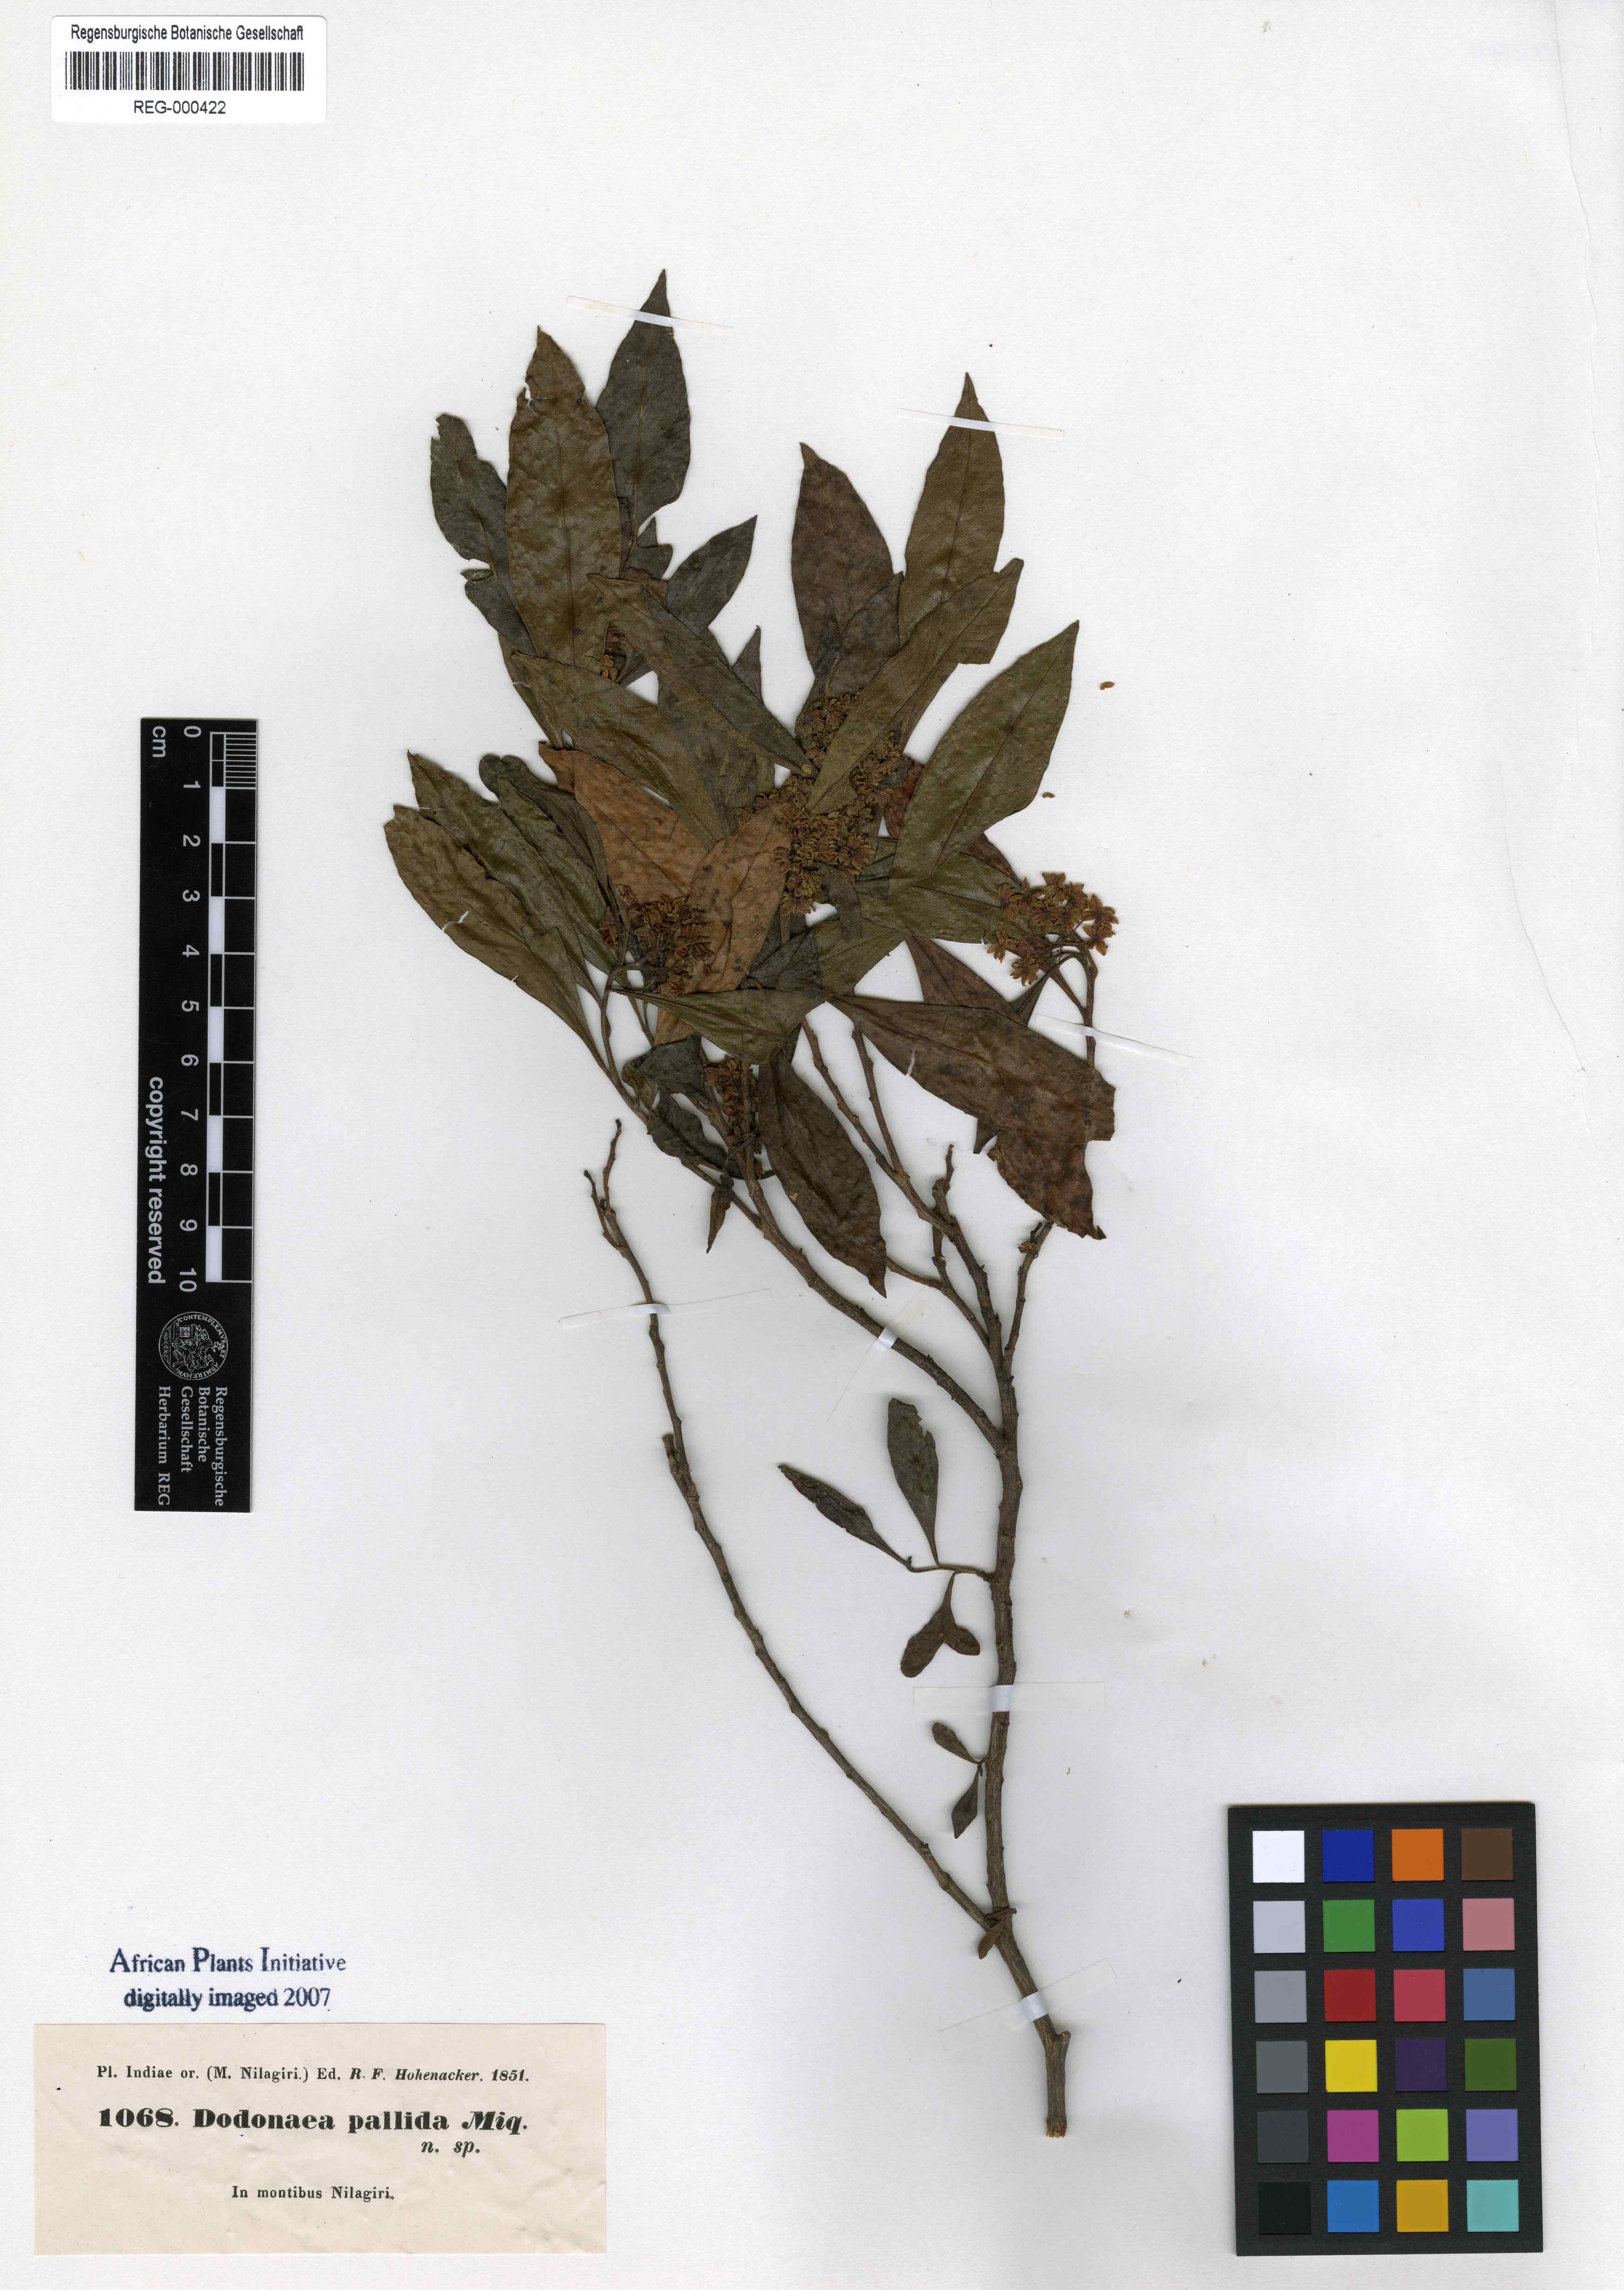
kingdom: Plantae
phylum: Tracheophyta
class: Magnoliopsida
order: Sapindales
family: Sapindaceae
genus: Dodonaea
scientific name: Dodonaea viscosa
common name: Hopbush
